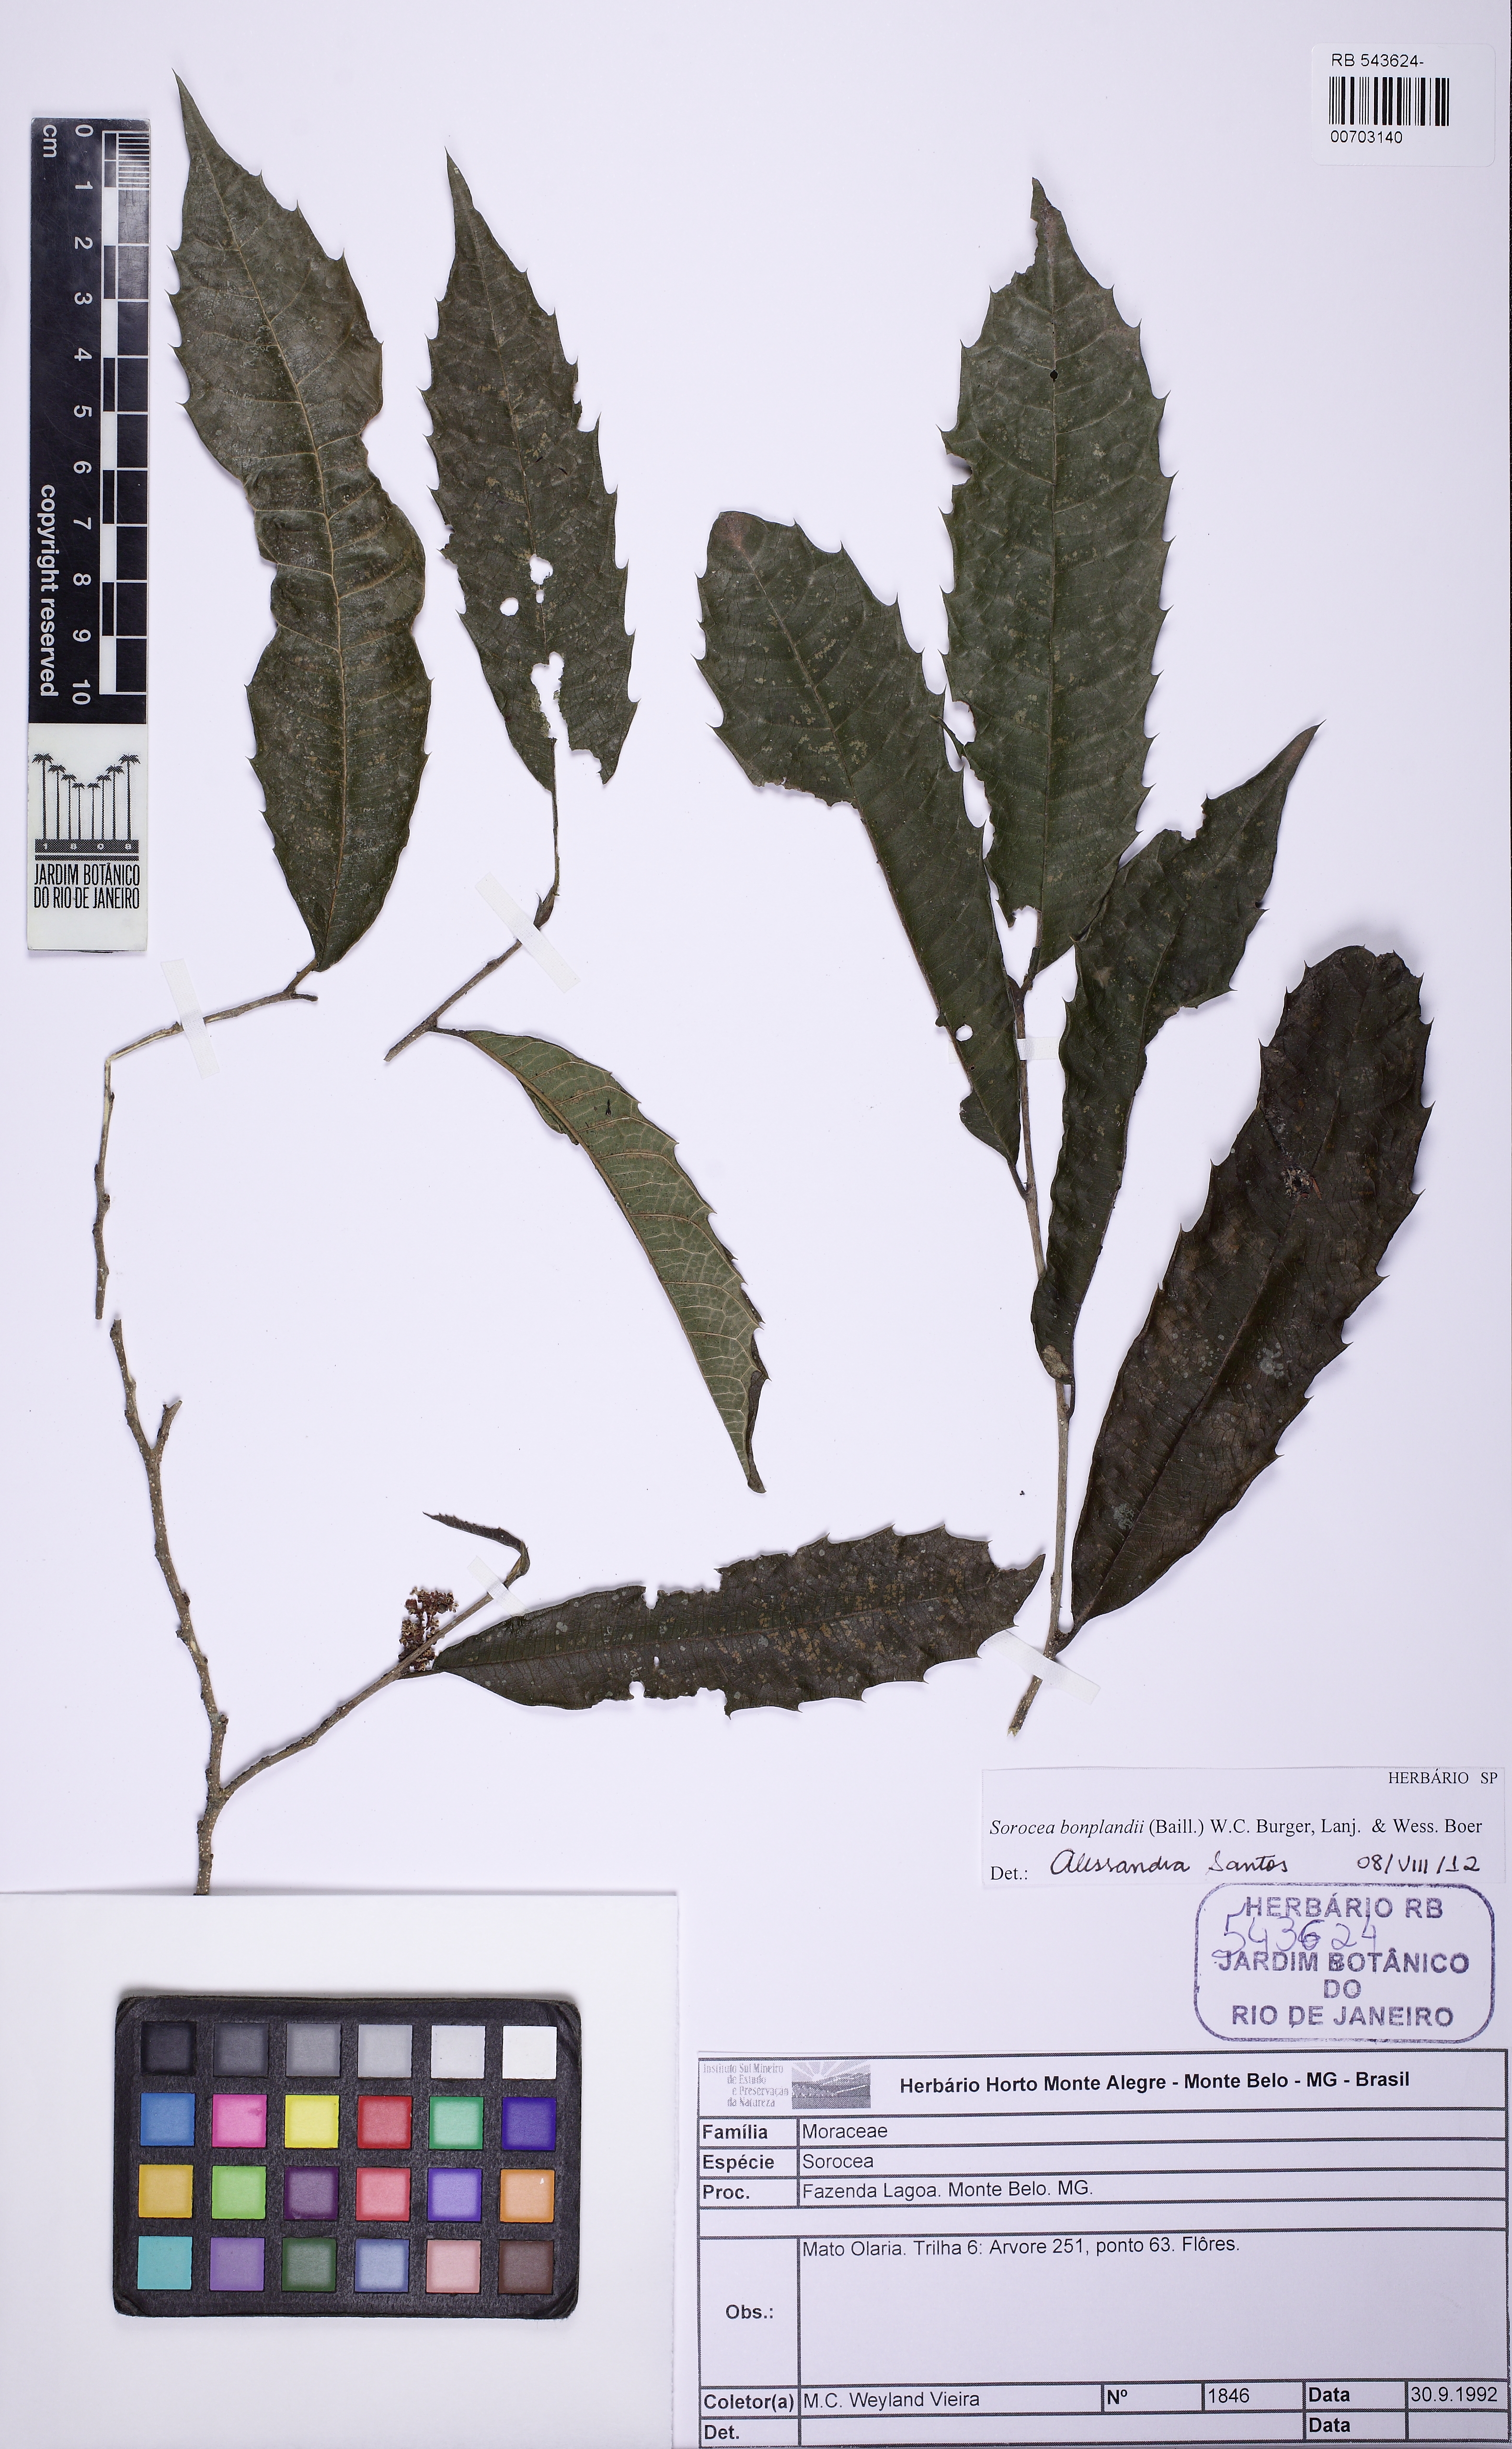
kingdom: Plantae
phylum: Tracheophyta
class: Magnoliopsida
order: Rosales
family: Moraceae
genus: Sorocea
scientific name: Sorocea bonplandii
